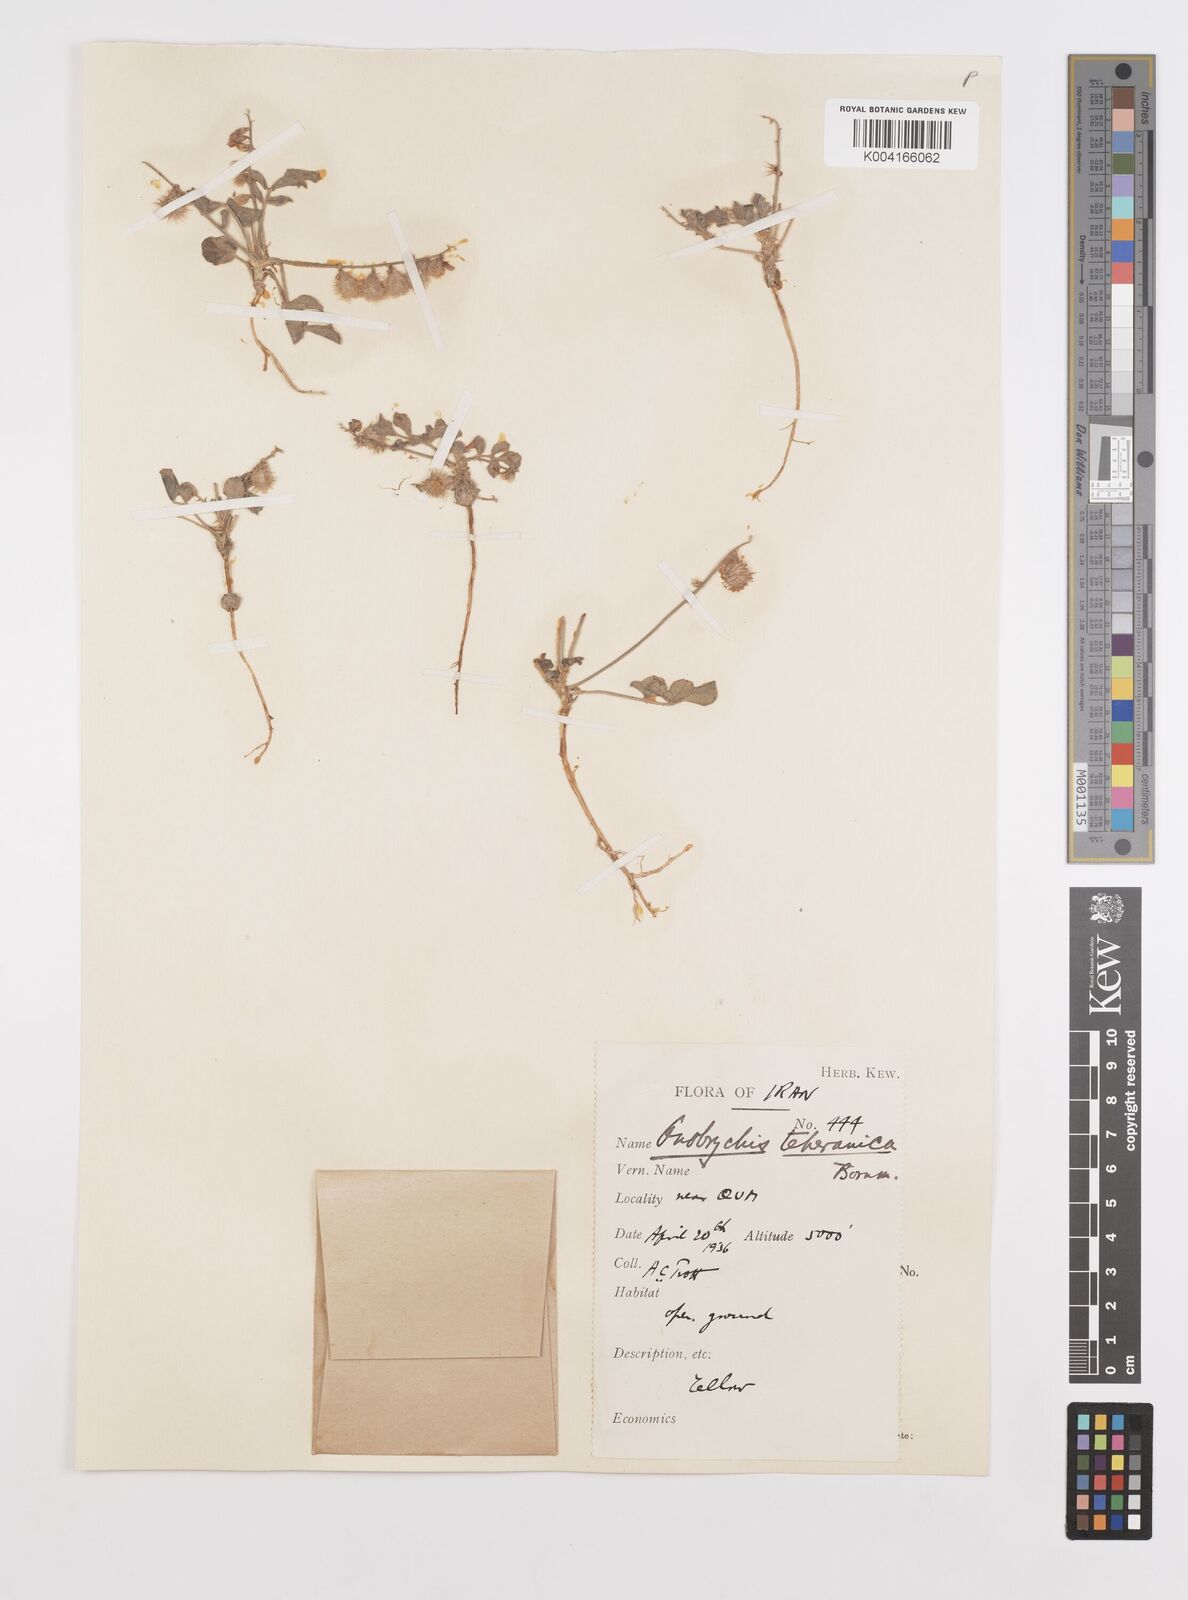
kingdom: Plantae
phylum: Tracheophyta
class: Magnoliopsida
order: Fabales
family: Fabaceae
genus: Onobrychis
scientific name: Onobrychis aucheri
